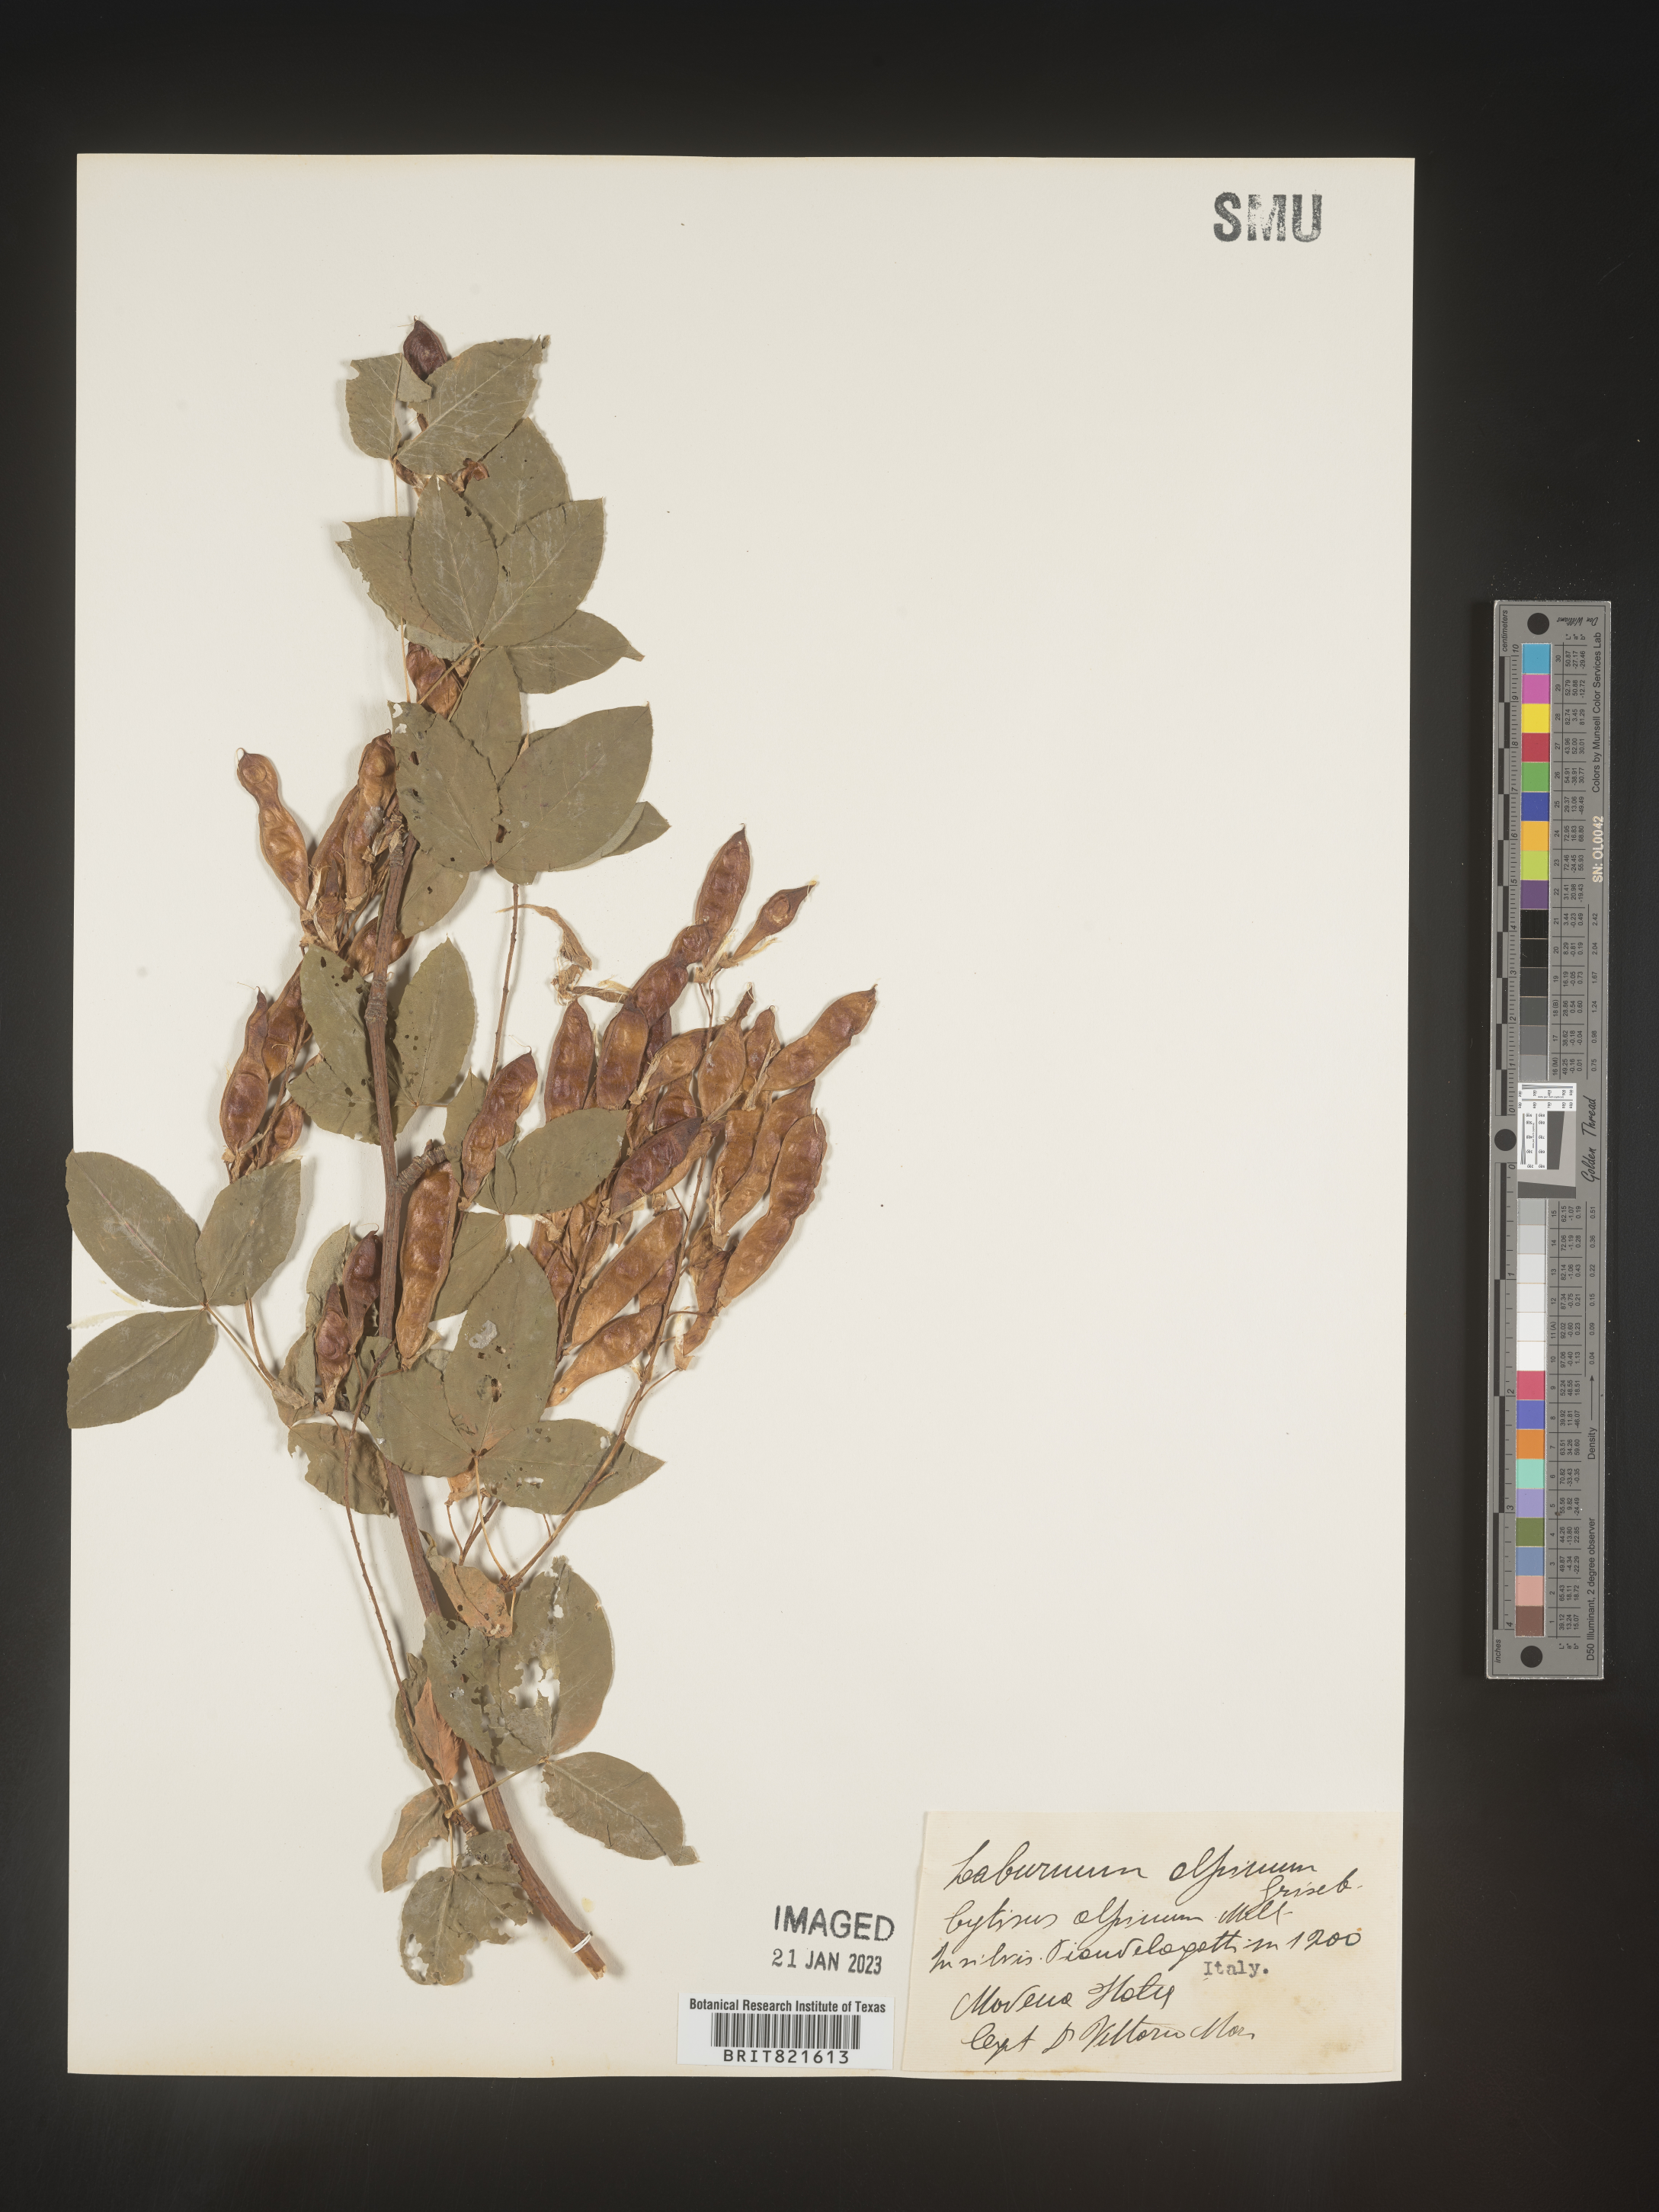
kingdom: Plantae
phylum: Tracheophyta
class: Magnoliopsida
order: Fabales
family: Fabaceae
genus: Laburnum
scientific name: Laburnum
